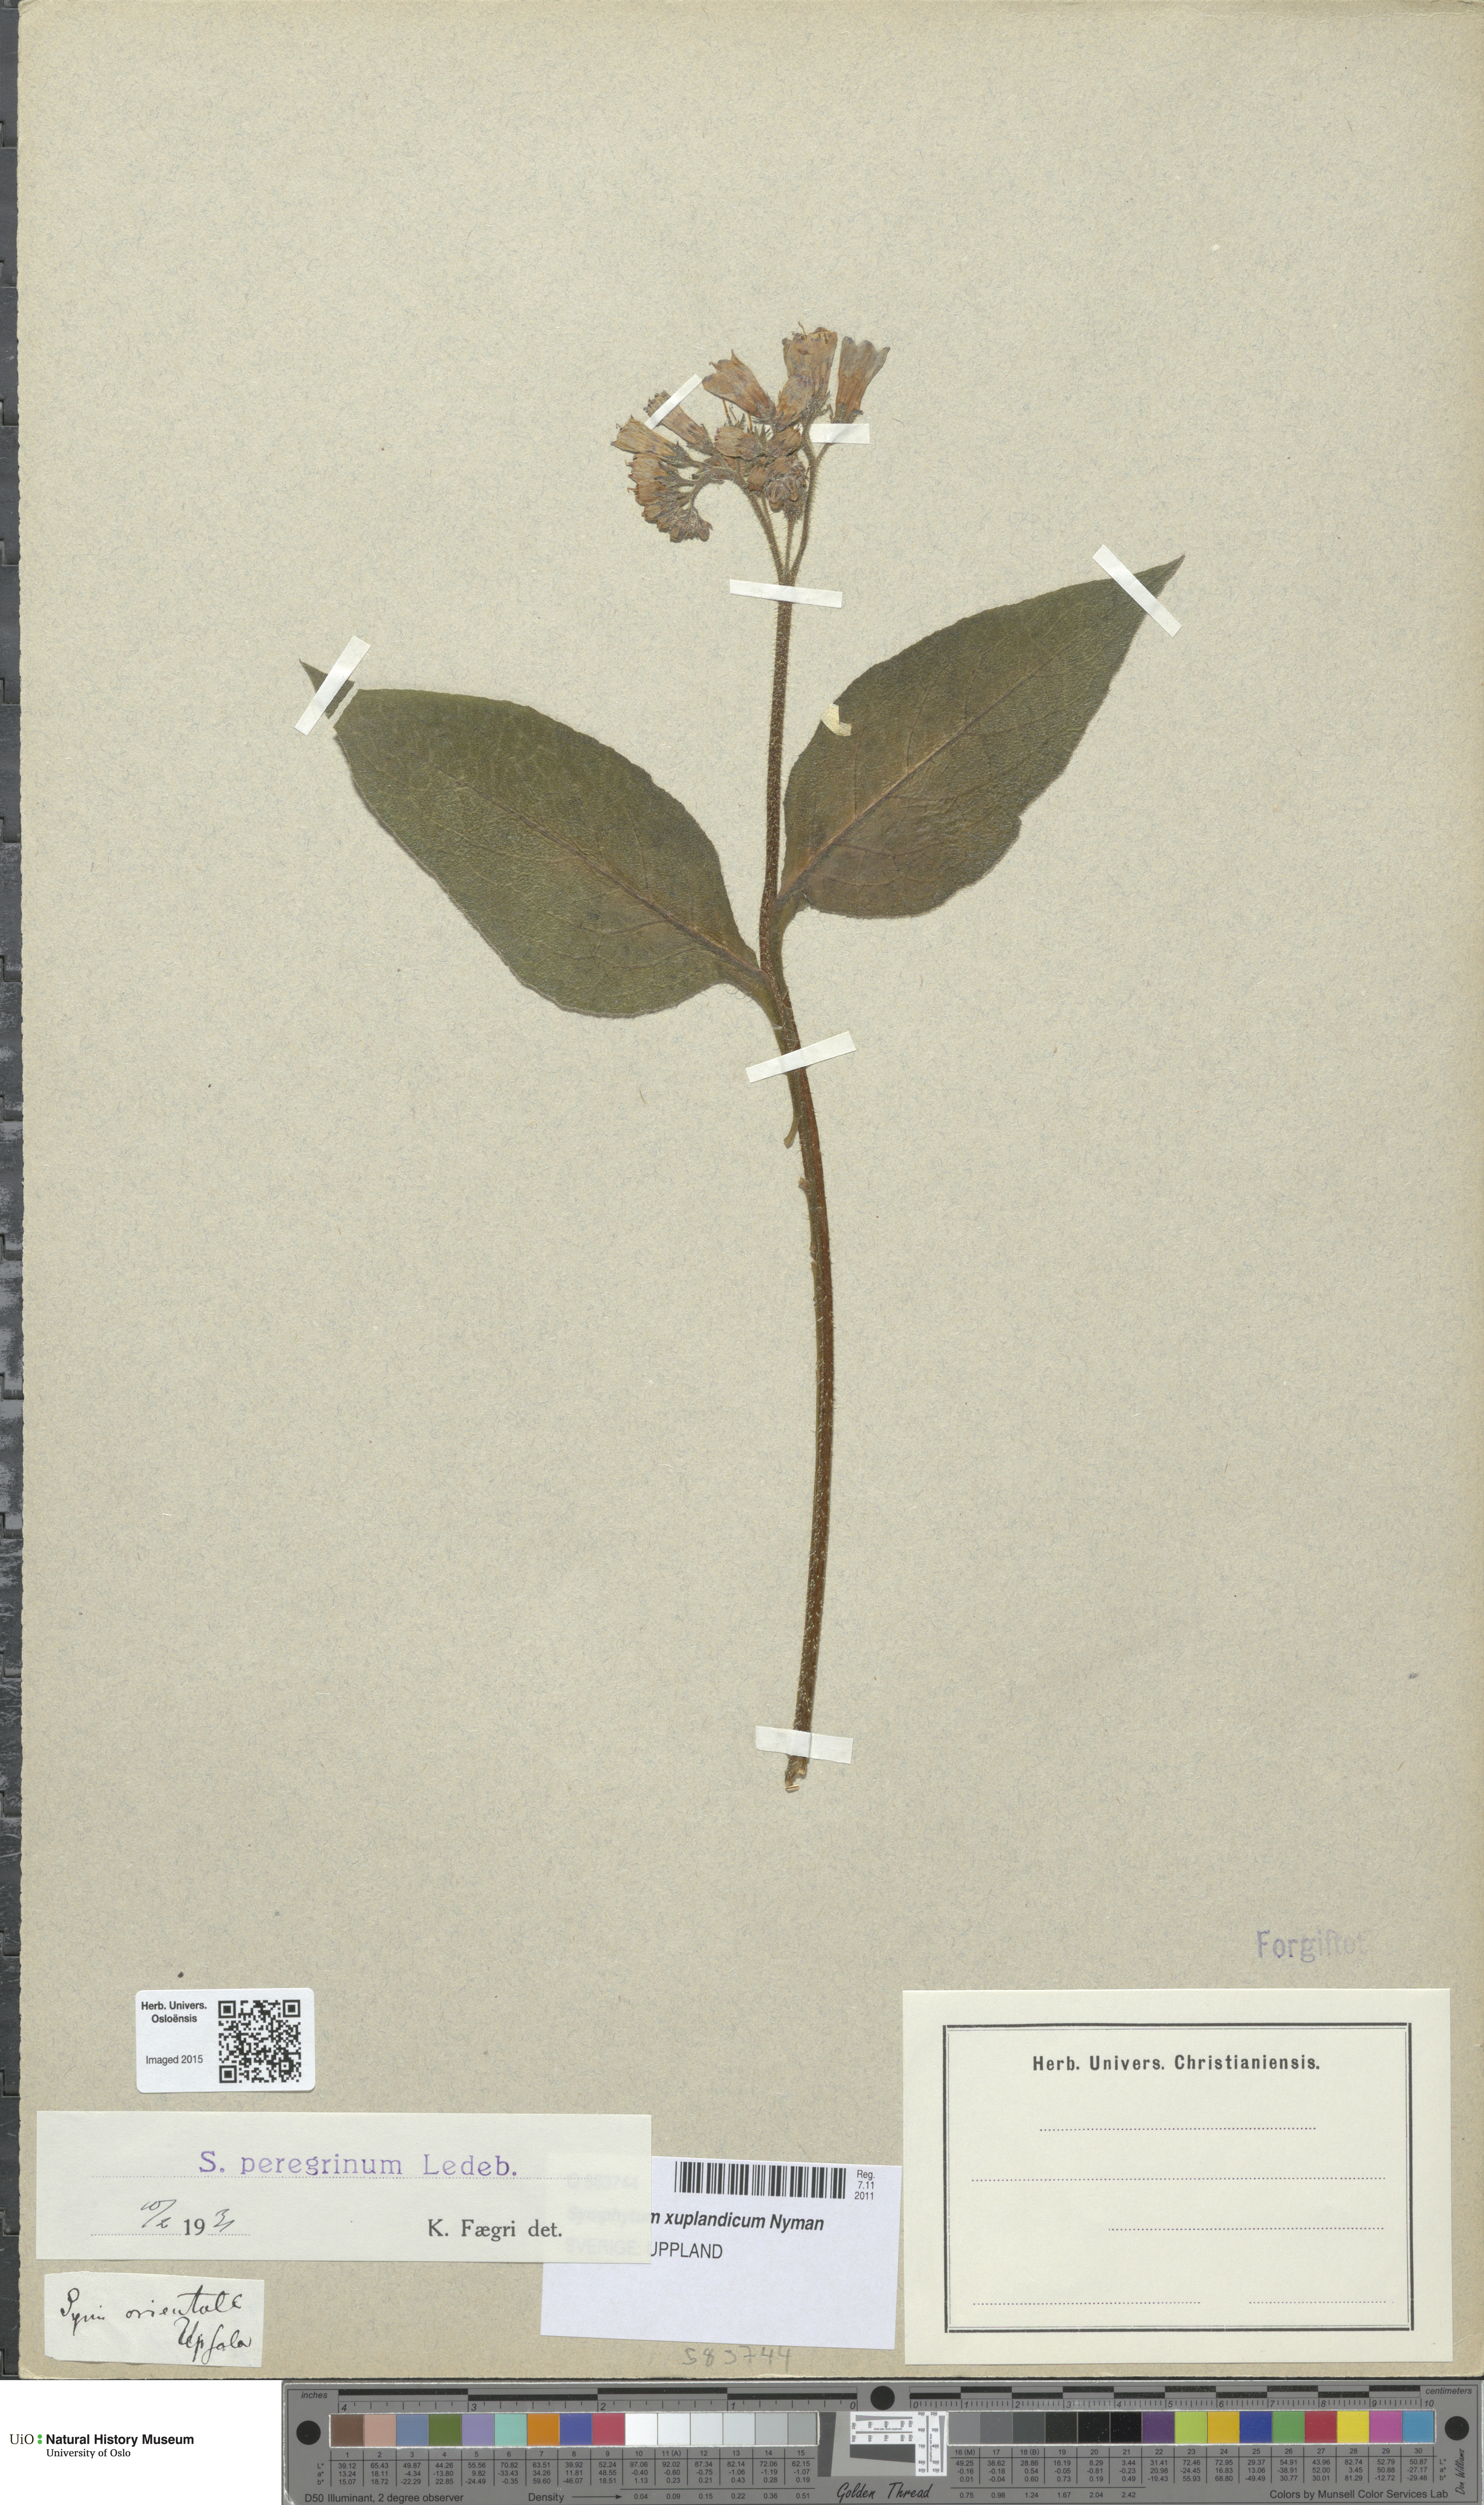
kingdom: Plantae
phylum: Tracheophyta
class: Magnoliopsida
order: Boraginales
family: Boraginaceae
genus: Symphytum
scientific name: Symphytum uplandicum
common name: Russian comfrey
